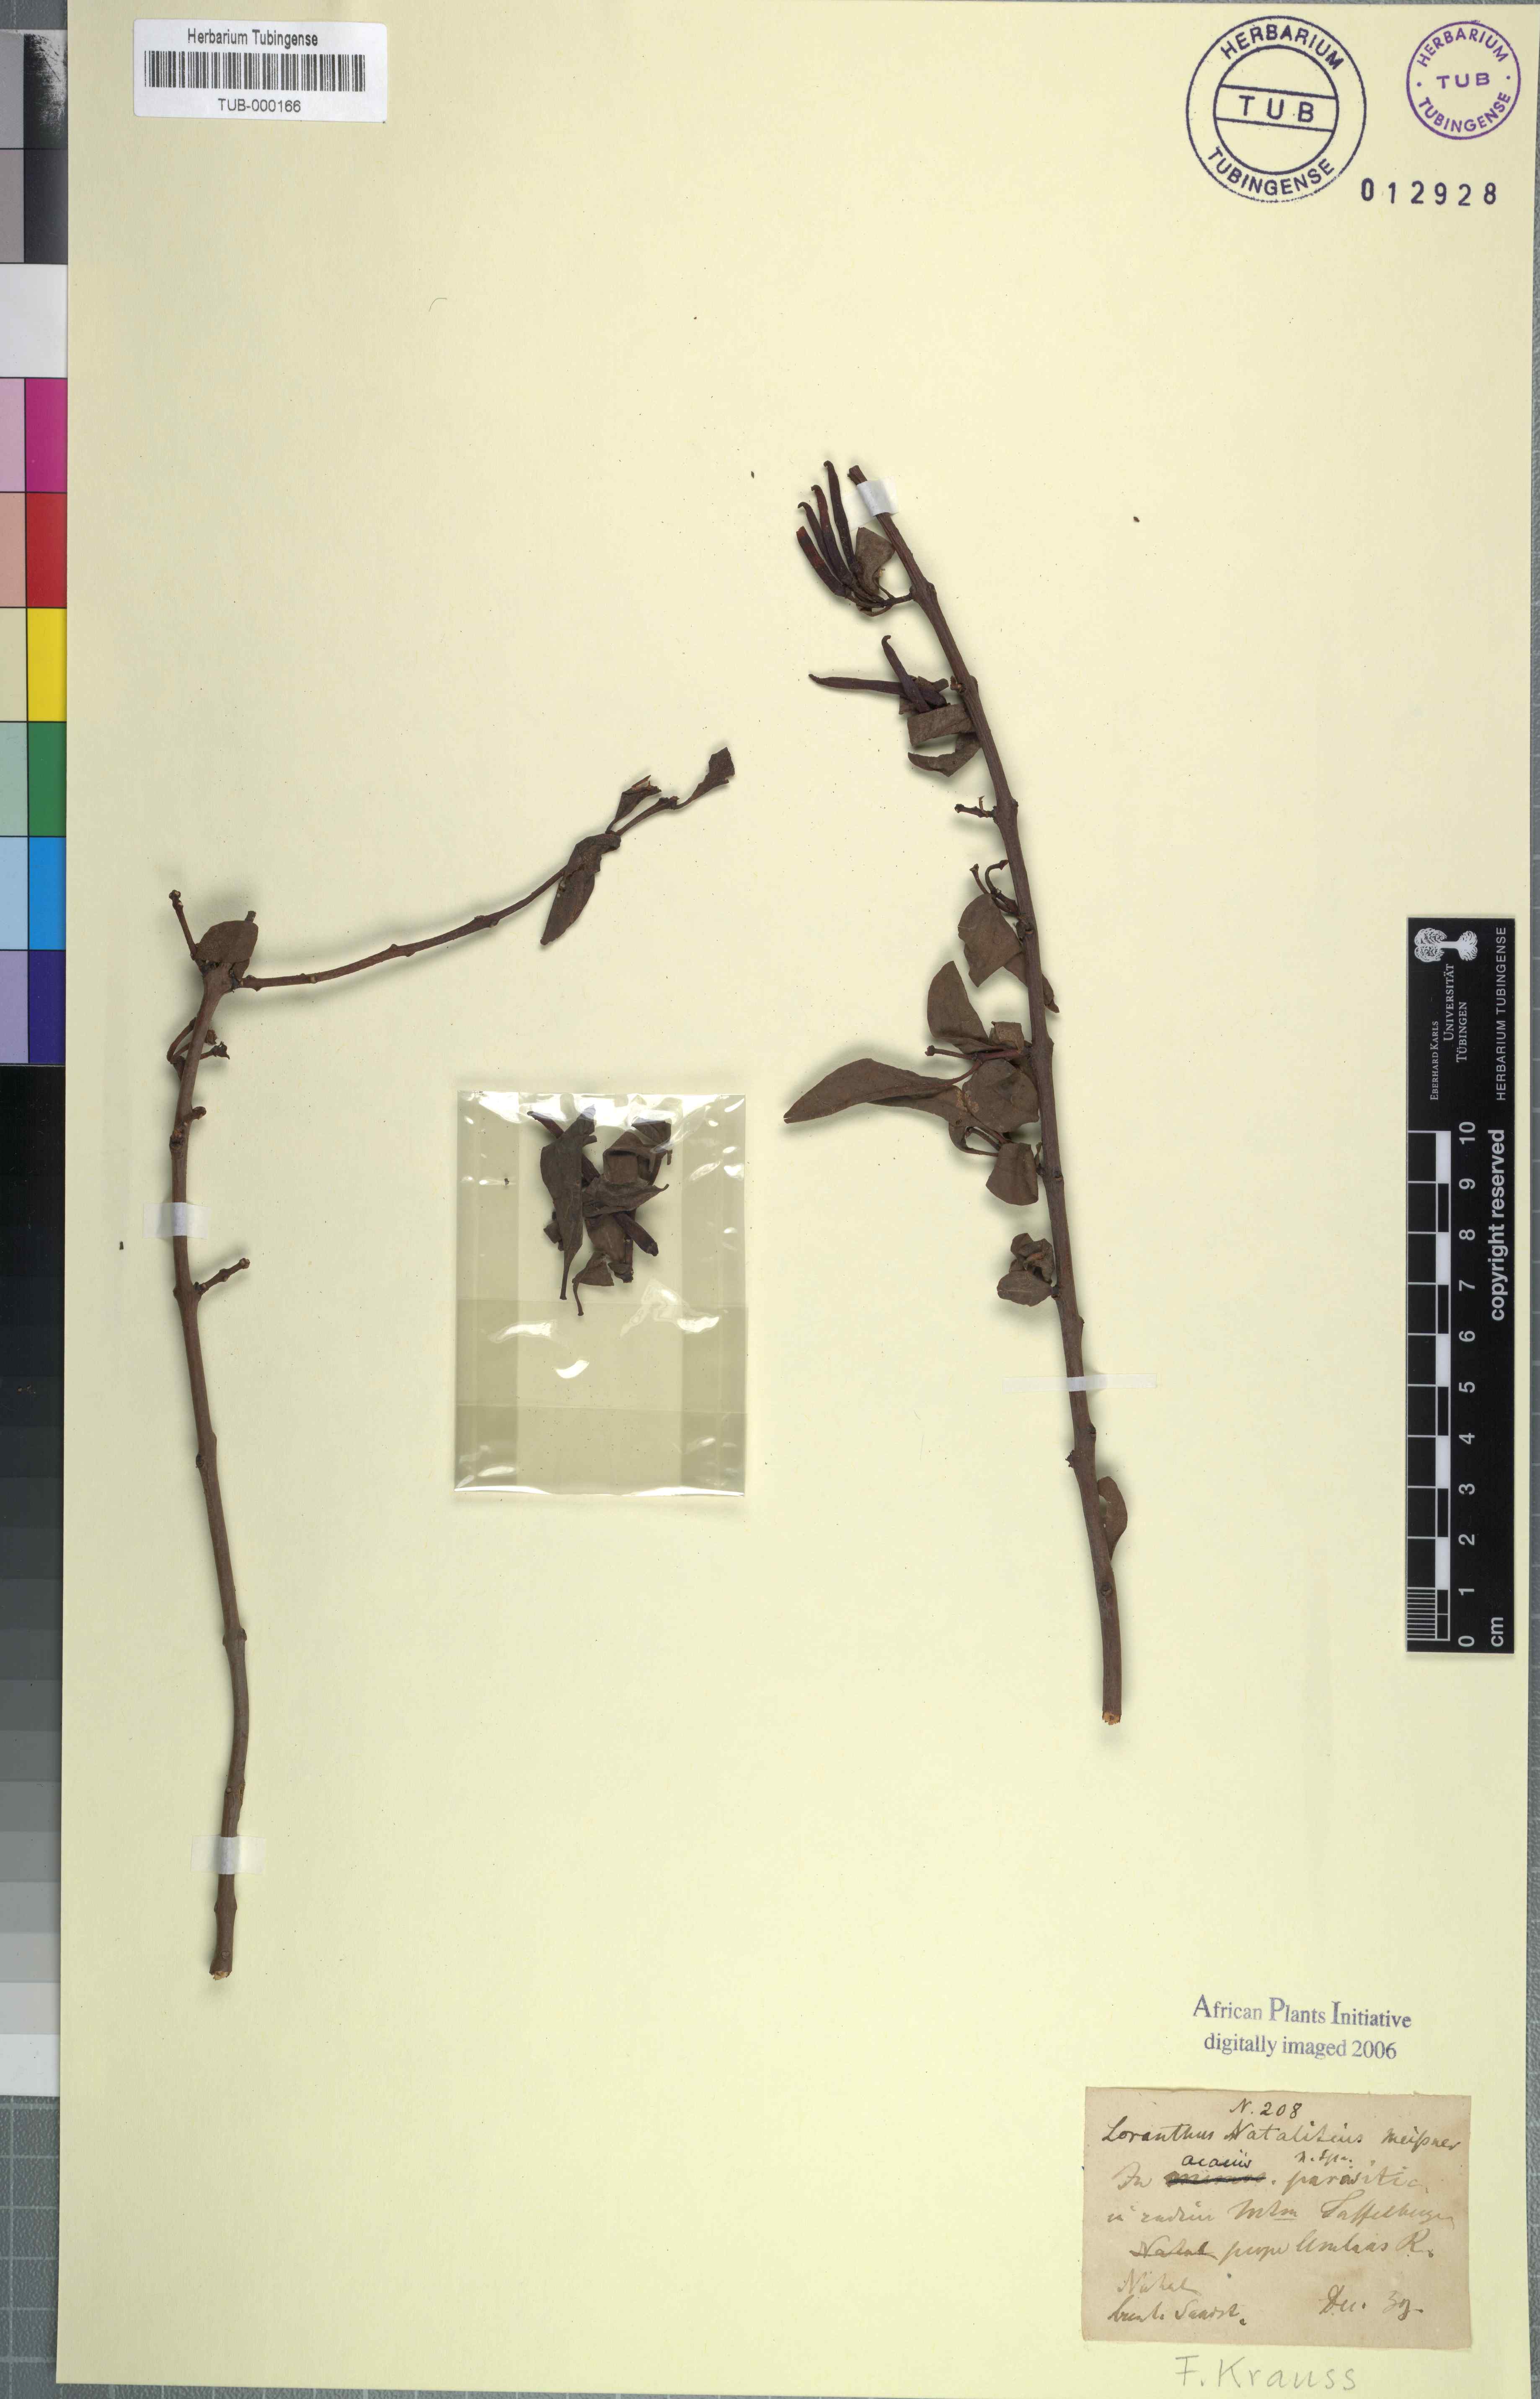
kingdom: Plantae
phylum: Tracheophyta
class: Magnoliopsida
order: Santalales
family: Loranthaceae
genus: Agelanthus
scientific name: Agelanthus natalitius
